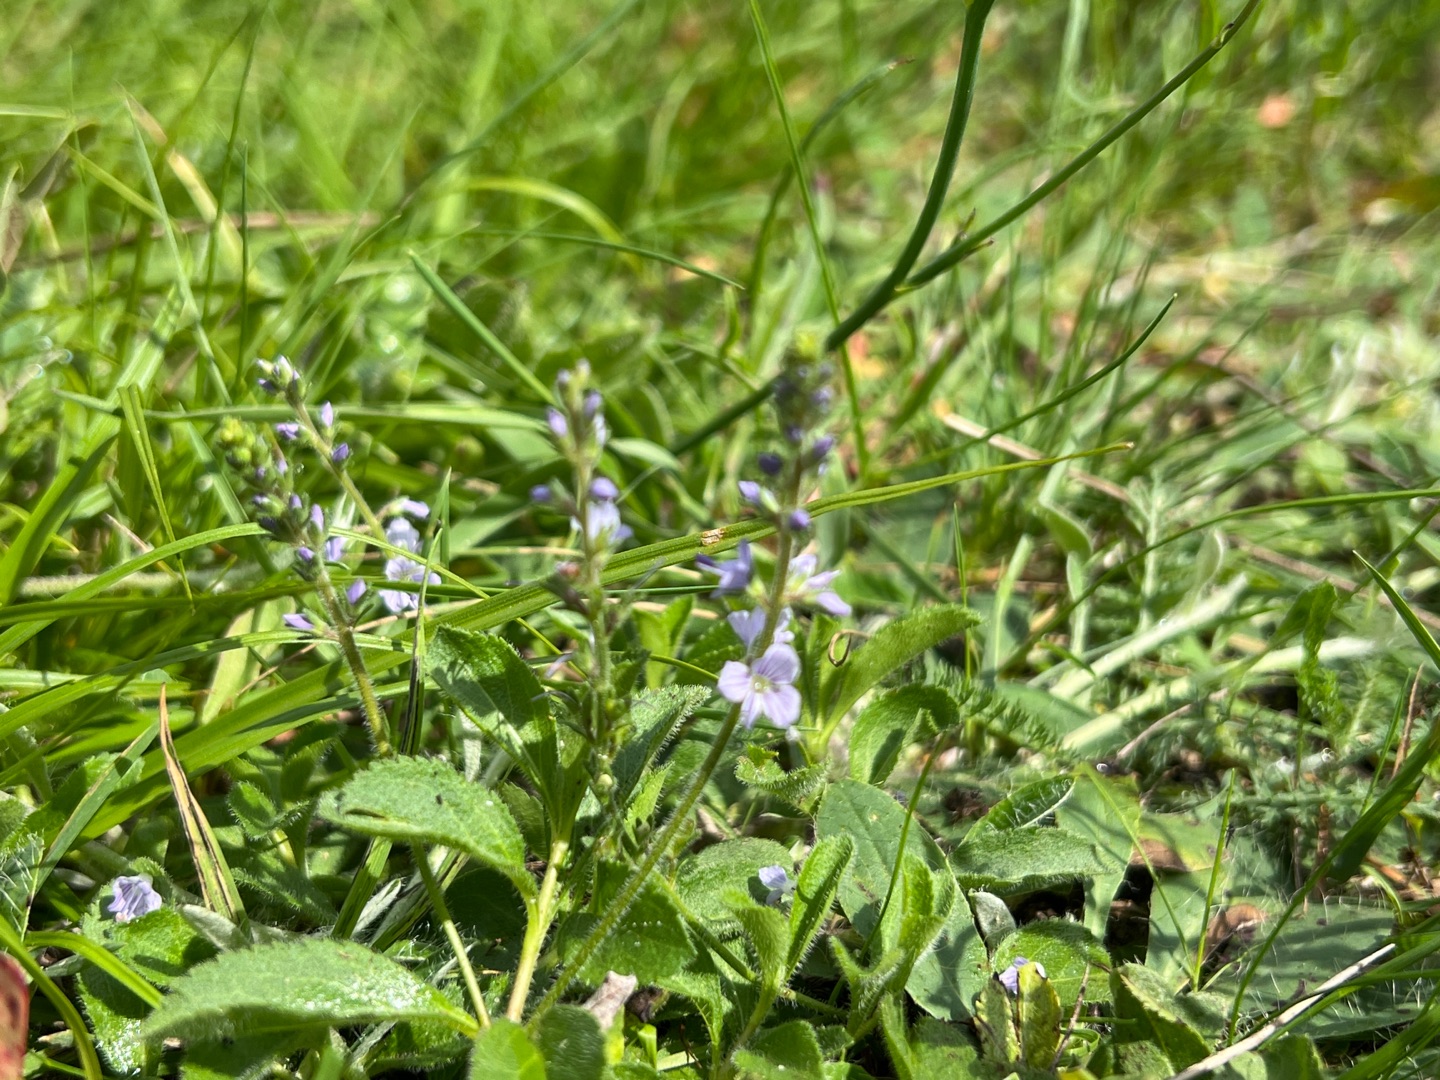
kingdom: Plantae
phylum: Tracheophyta
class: Magnoliopsida
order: Lamiales
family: Plantaginaceae
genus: Veronica
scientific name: Veronica officinalis
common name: Læge-ærenpris
